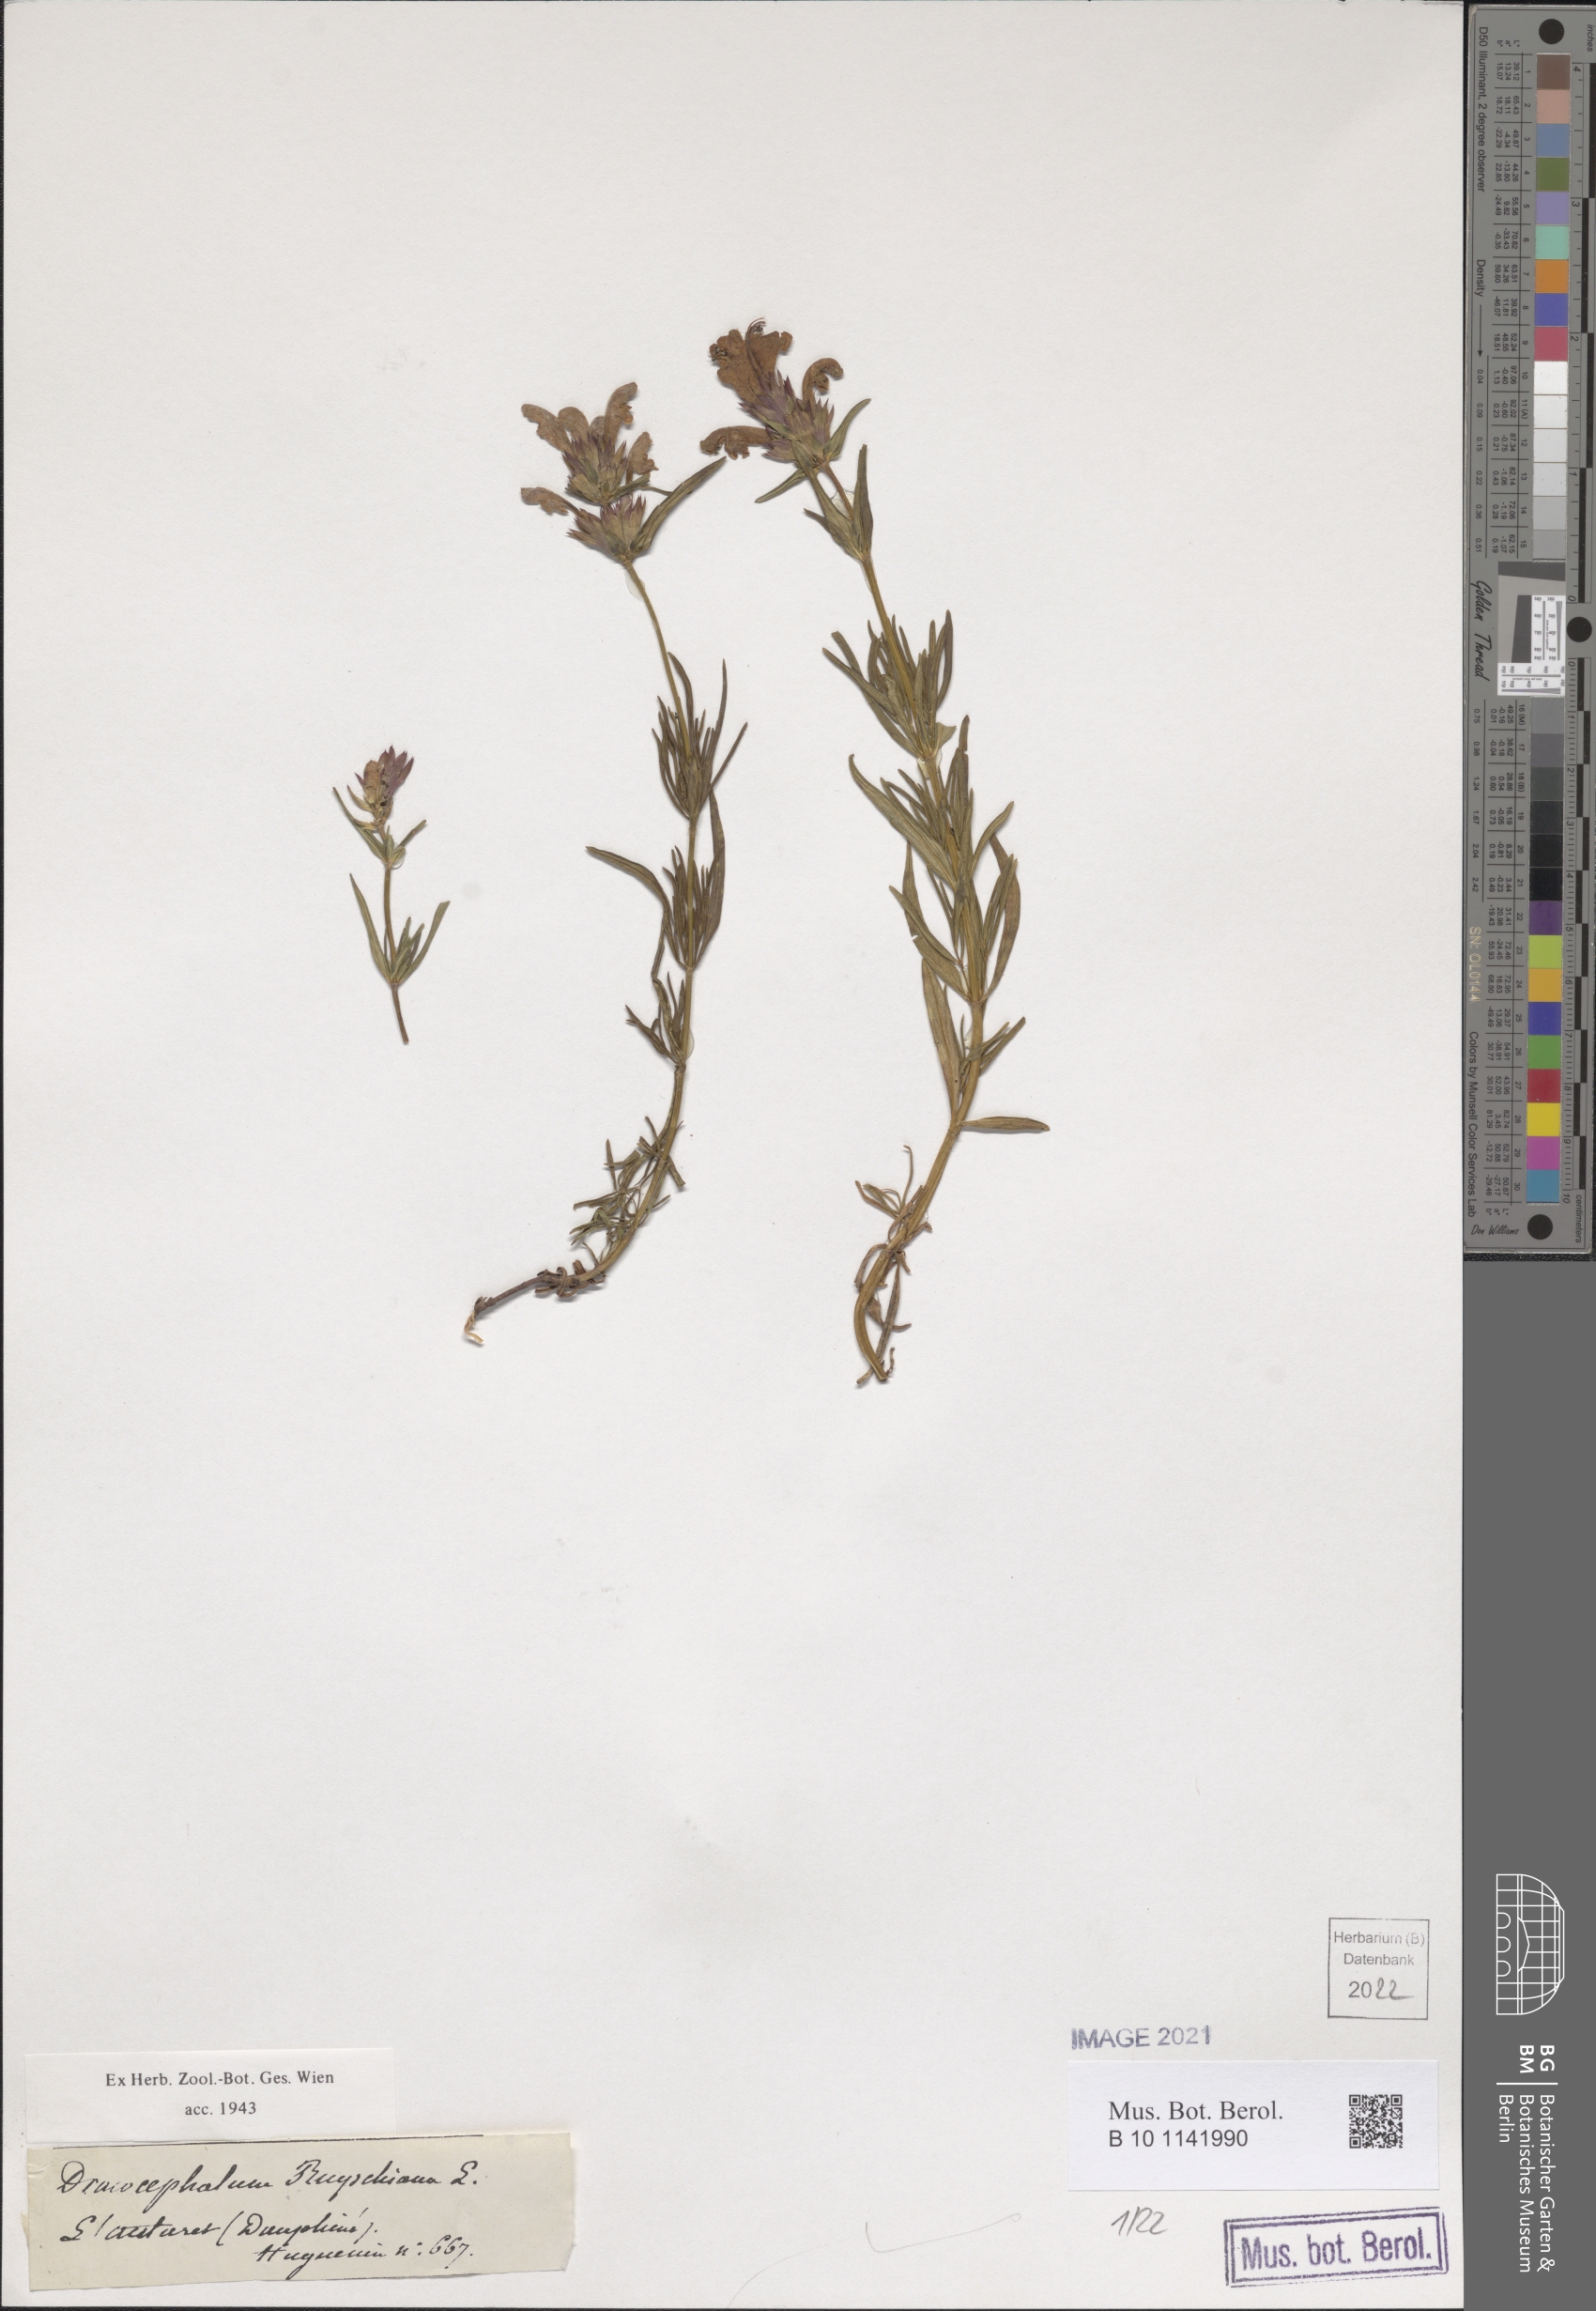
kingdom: Plantae
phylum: Tracheophyta
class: Magnoliopsida
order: Lamiales
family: Lamiaceae
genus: Dracocephalum
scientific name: Dracocephalum ruyschiana
